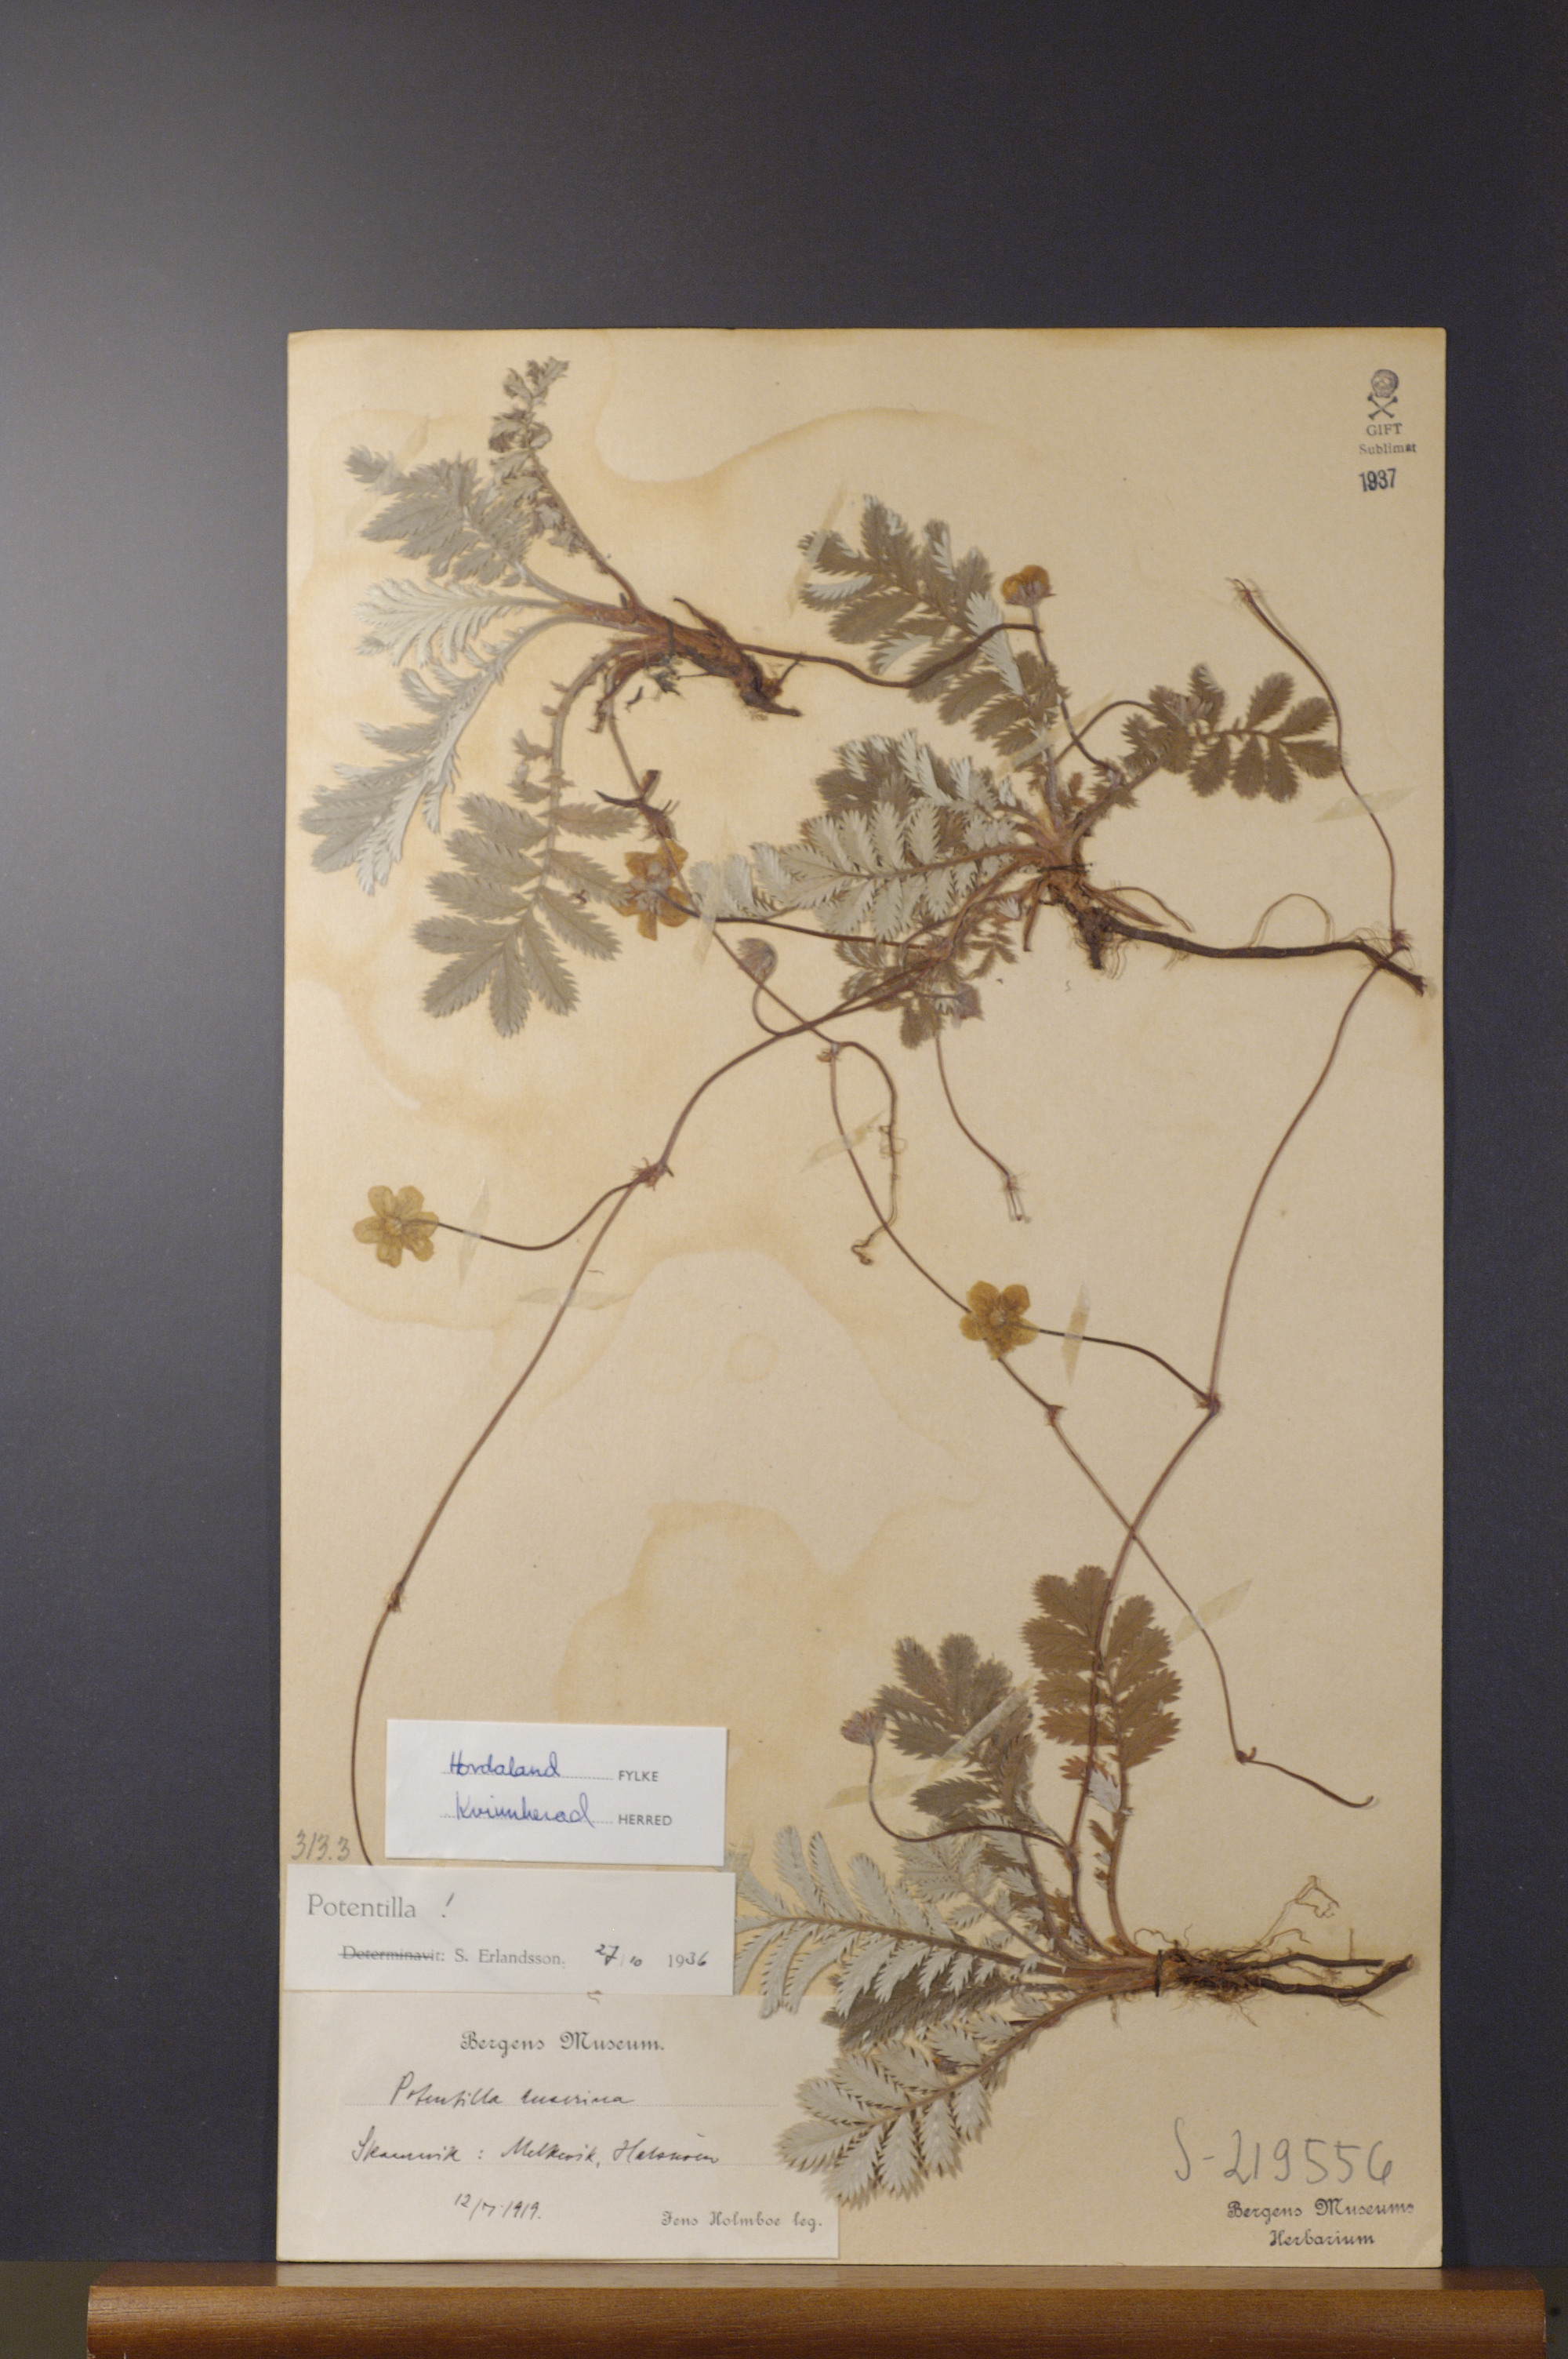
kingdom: Plantae
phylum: Tracheophyta
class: Magnoliopsida
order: Rosales
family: Rosaceae
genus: Argentina
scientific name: Argentina anserina
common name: Common silverweed
